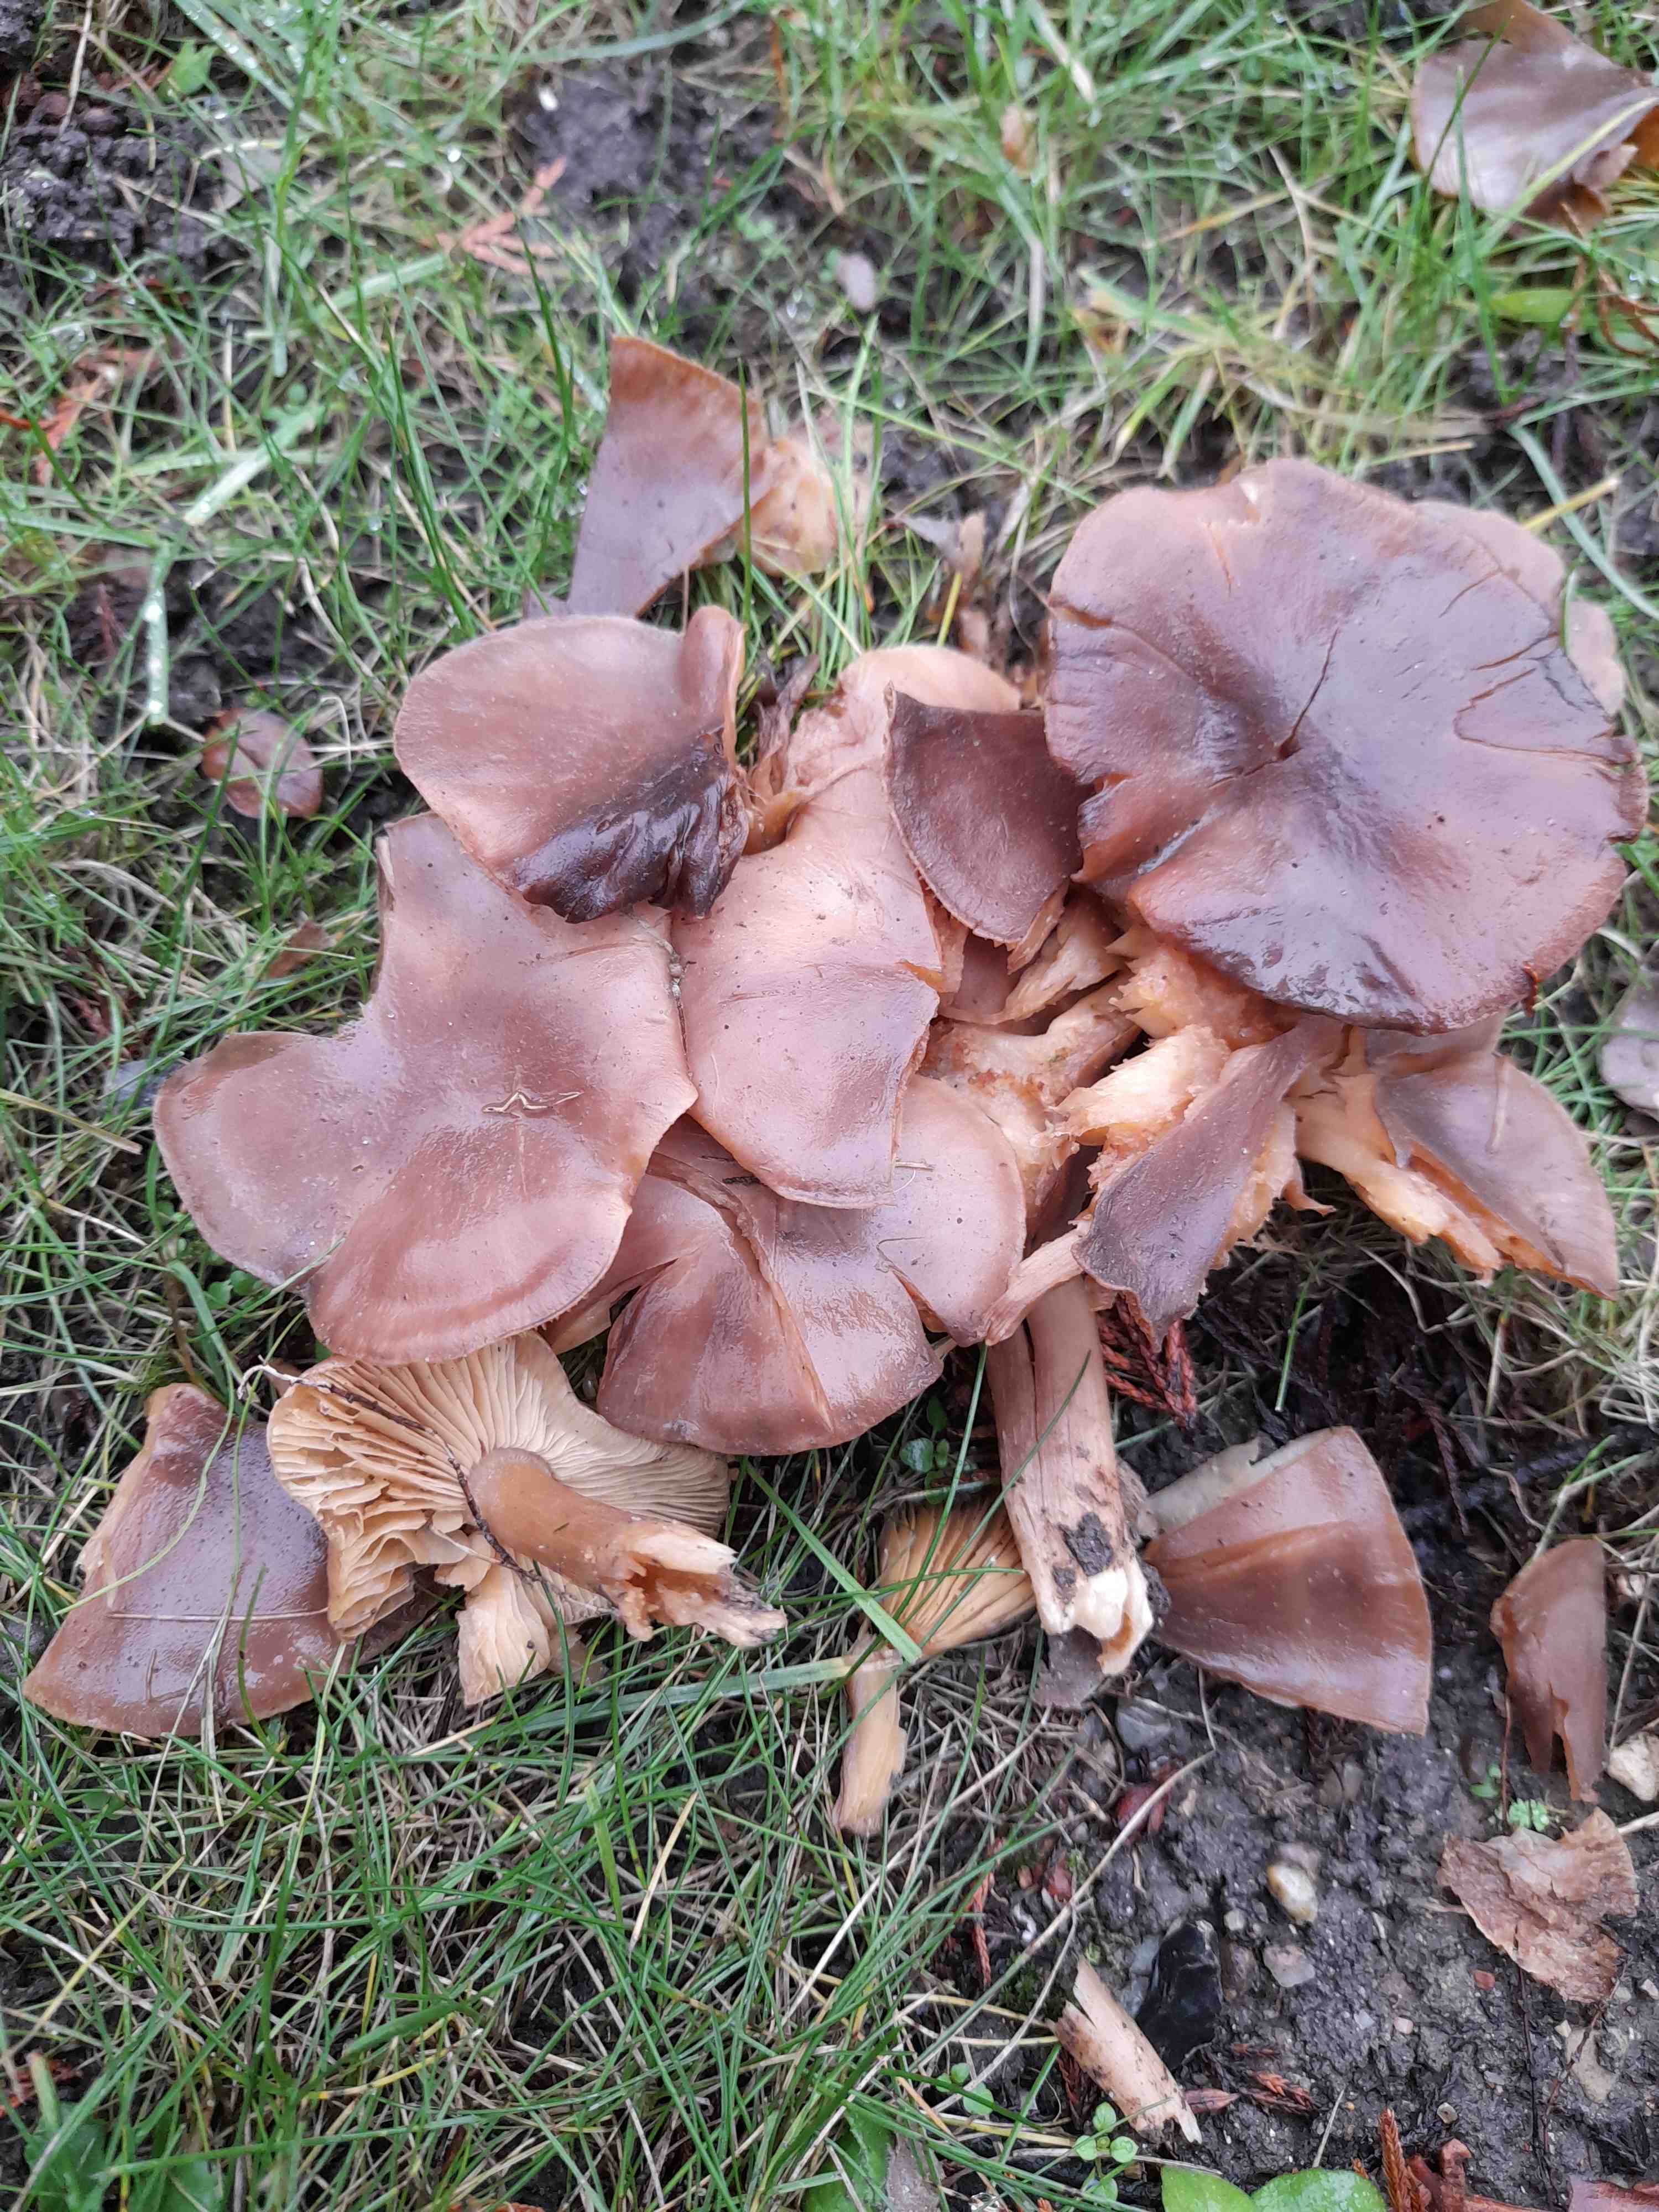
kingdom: Fungi
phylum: Basidiomycota
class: Agaricomycetes
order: Agaricales
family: Lyophyllaceae
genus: Lyophyllum
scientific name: Lyophyllum decastes
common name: Clustered domecap
